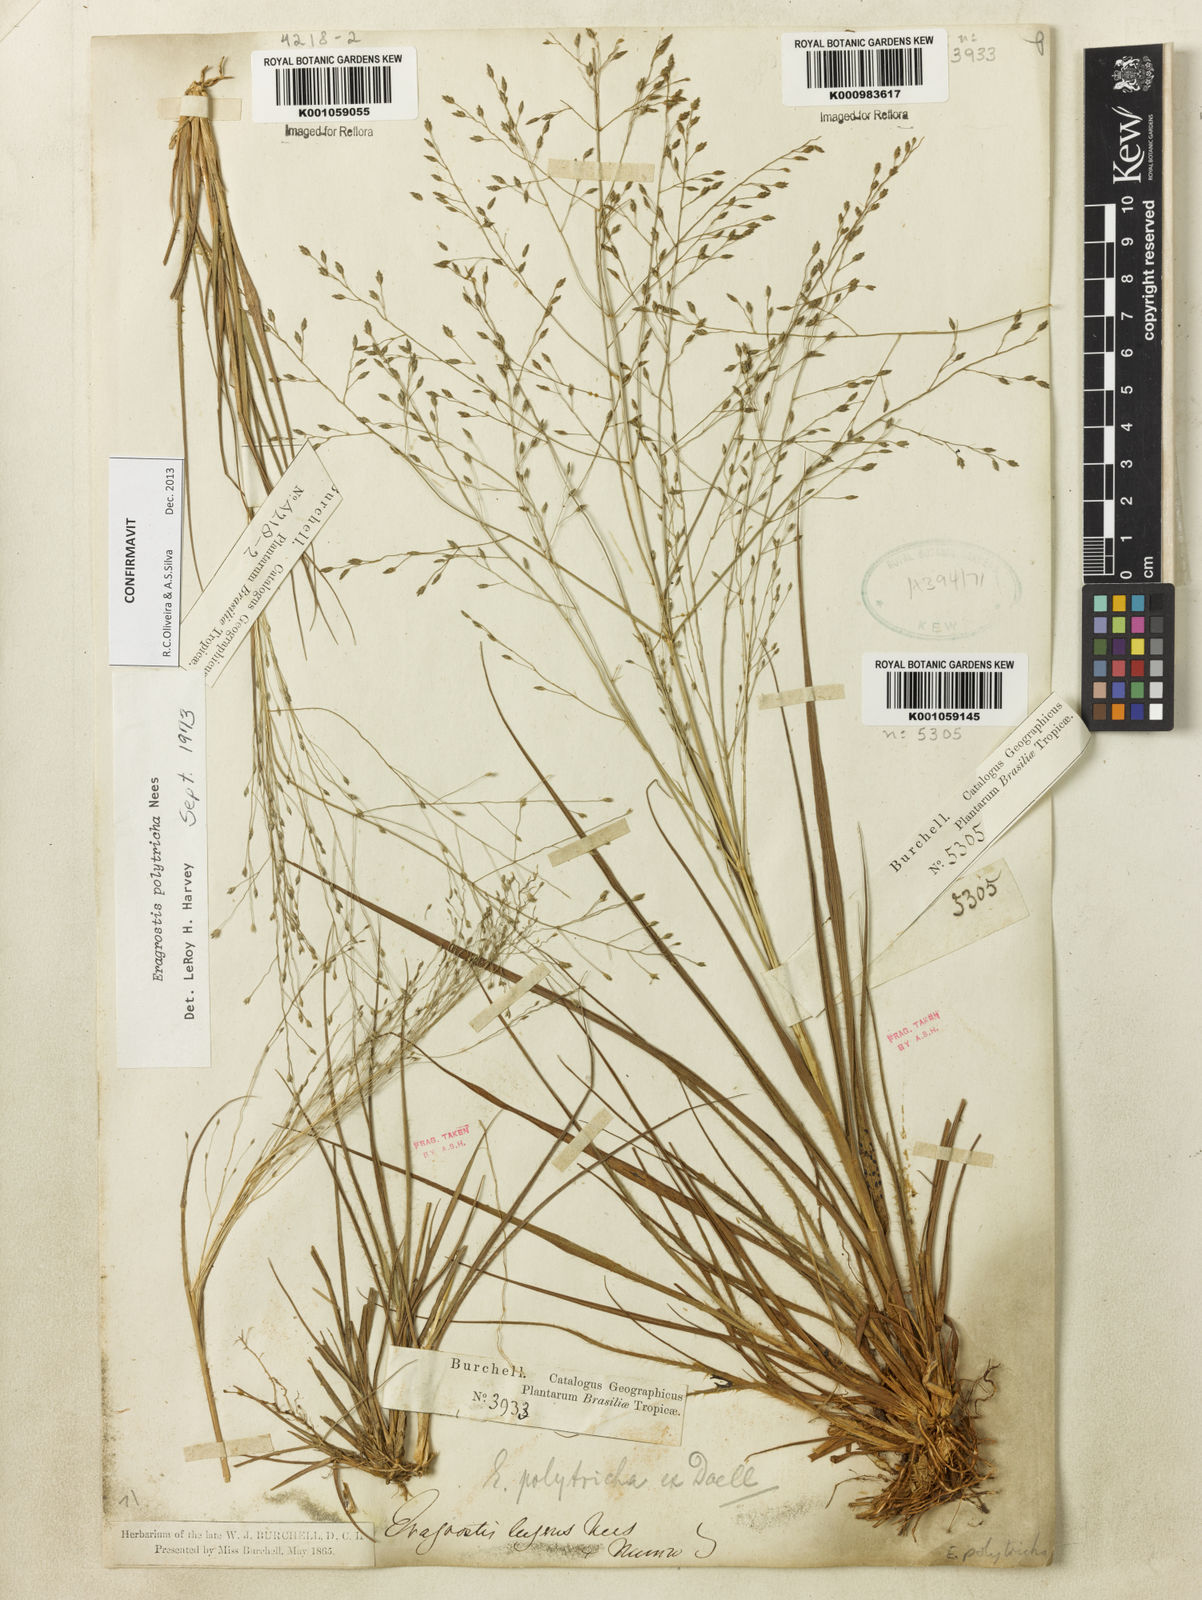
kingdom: Plantae
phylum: Tracheophyta
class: Liliopsida
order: Poales
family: Poaceae
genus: Eragrostis
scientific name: Eragrostis polytricha
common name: Hairy-sheath love grass
